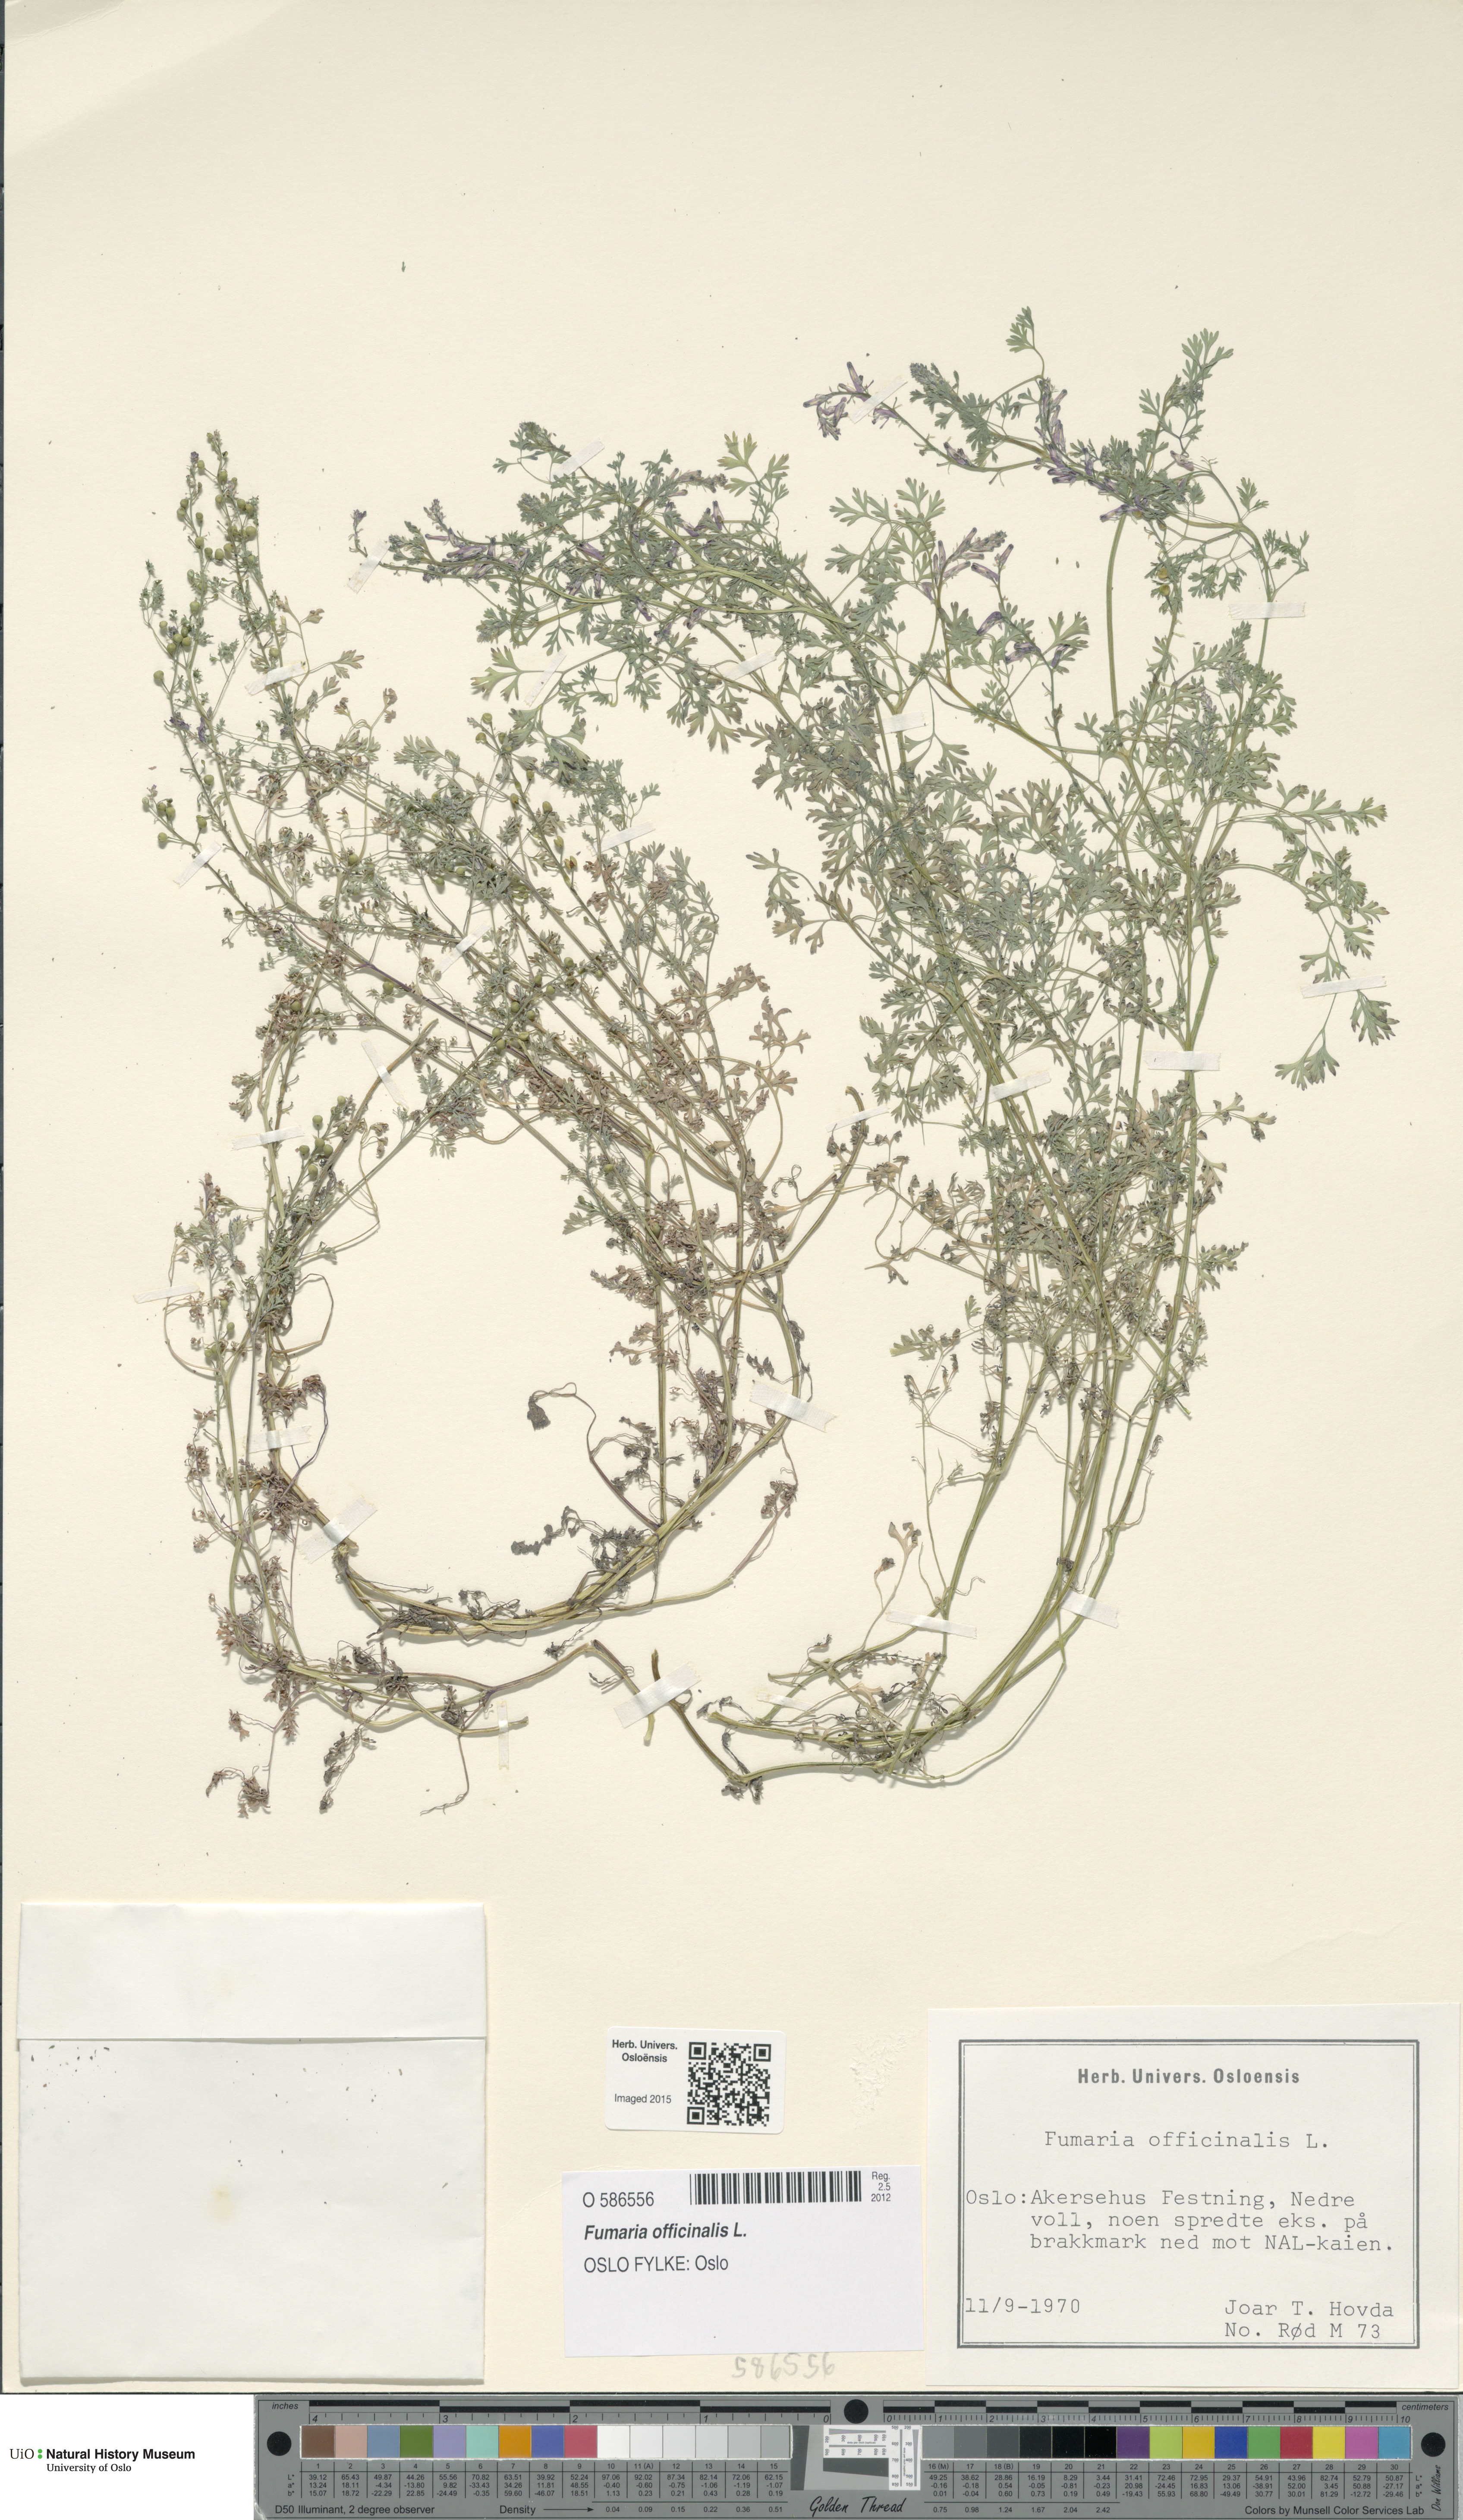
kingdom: Plantae
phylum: Tracheophyta
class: Magnoliopsida
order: Ranunculales
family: Papaveraceae
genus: Fumaria
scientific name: Fumaria officinalis
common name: Common fumitory
